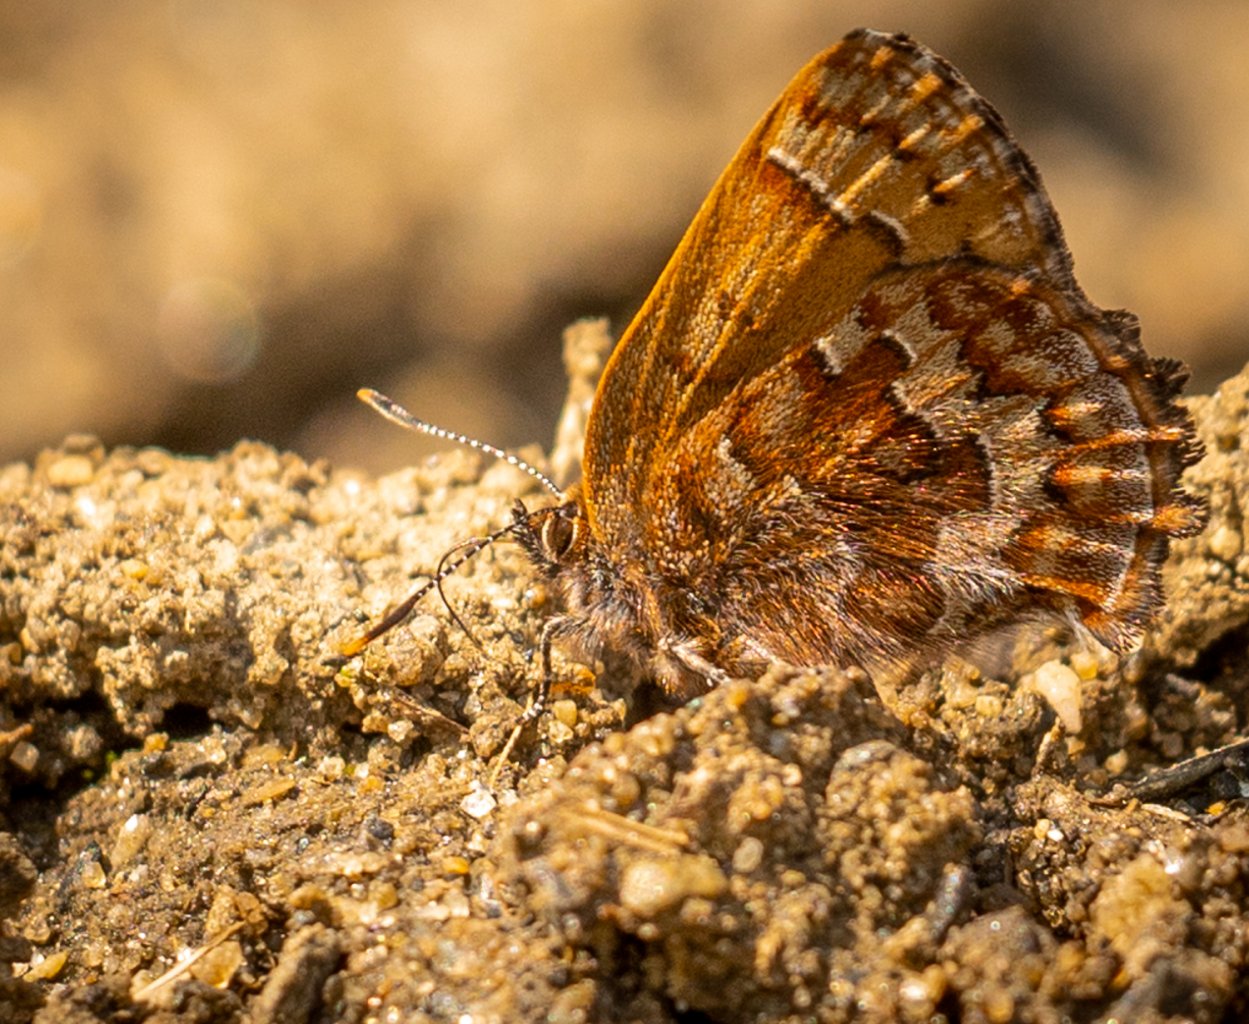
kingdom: Animalia
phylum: Arthropoda
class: Insecta
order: Lepidoptera
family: Lycaenidae
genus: Incisalia
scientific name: Incisalia niphon
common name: Eastern Pine Elfin
